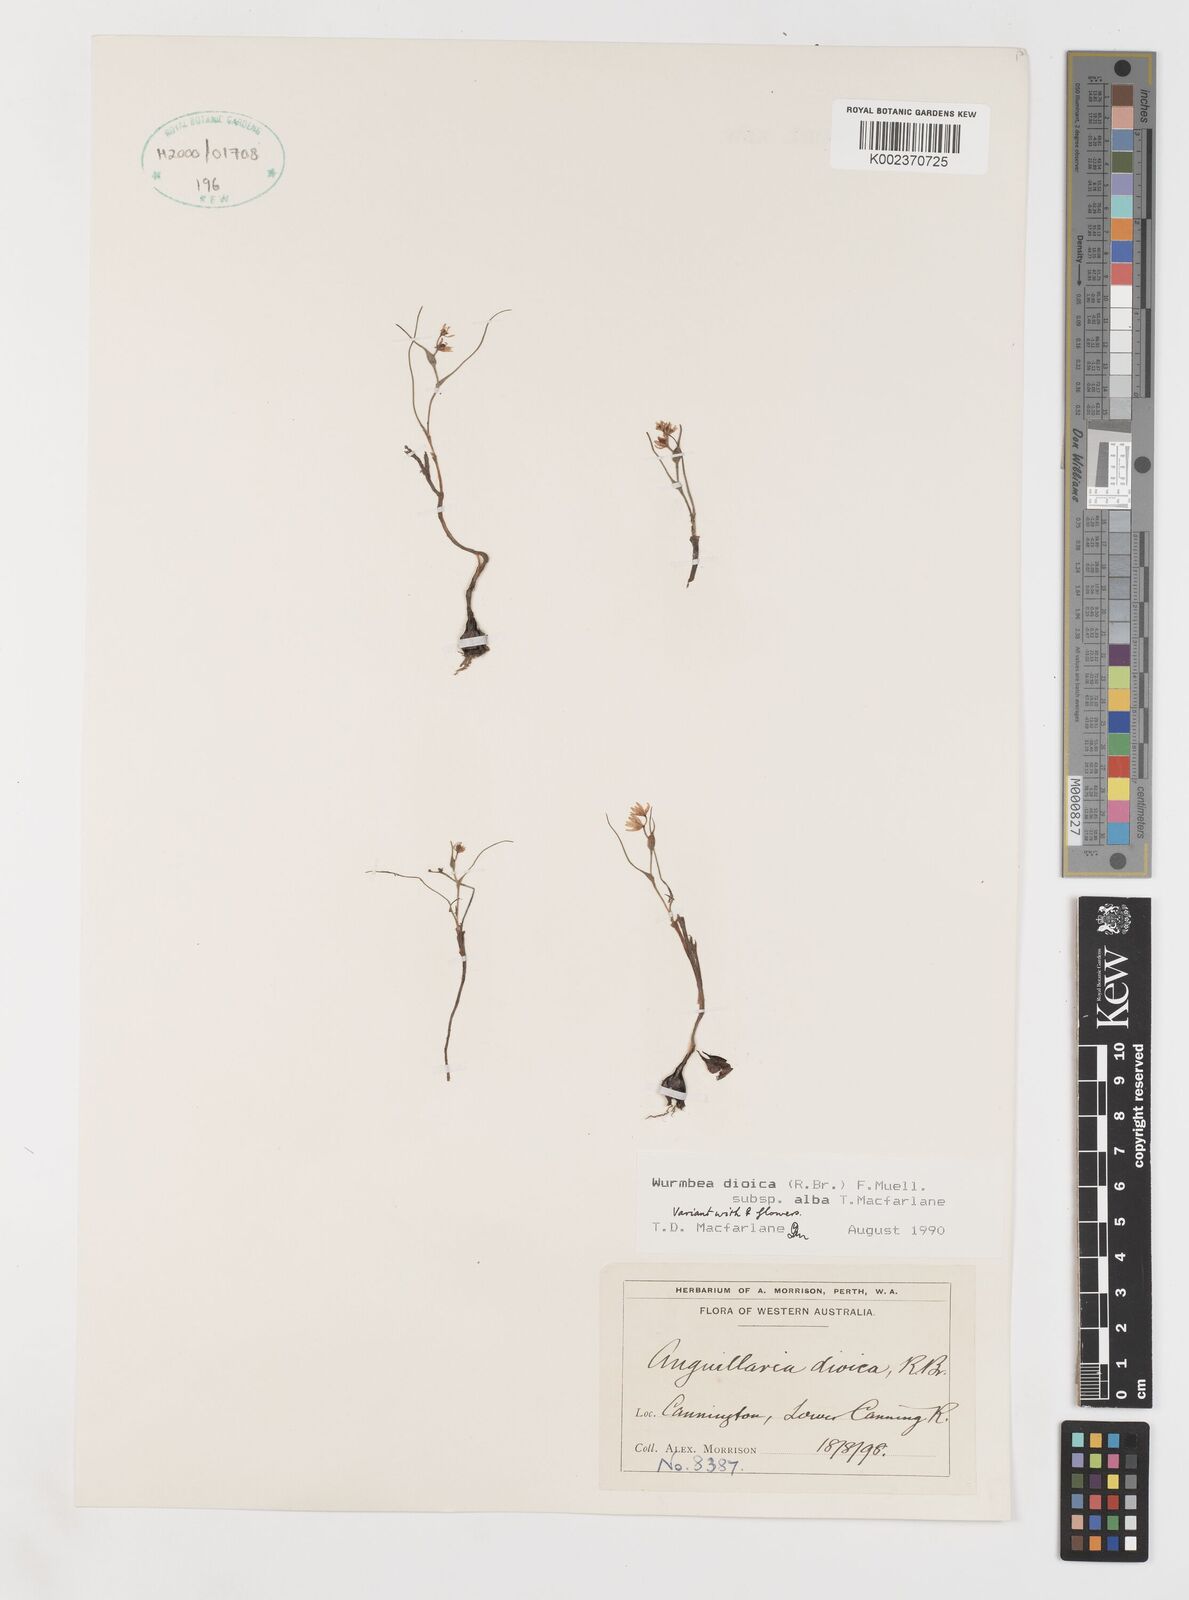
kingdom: Plantae
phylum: Tracheophyta
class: Liliopsida
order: Liliales
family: Colchicaceae
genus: Wurmbea
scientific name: Wurmbea dioica
